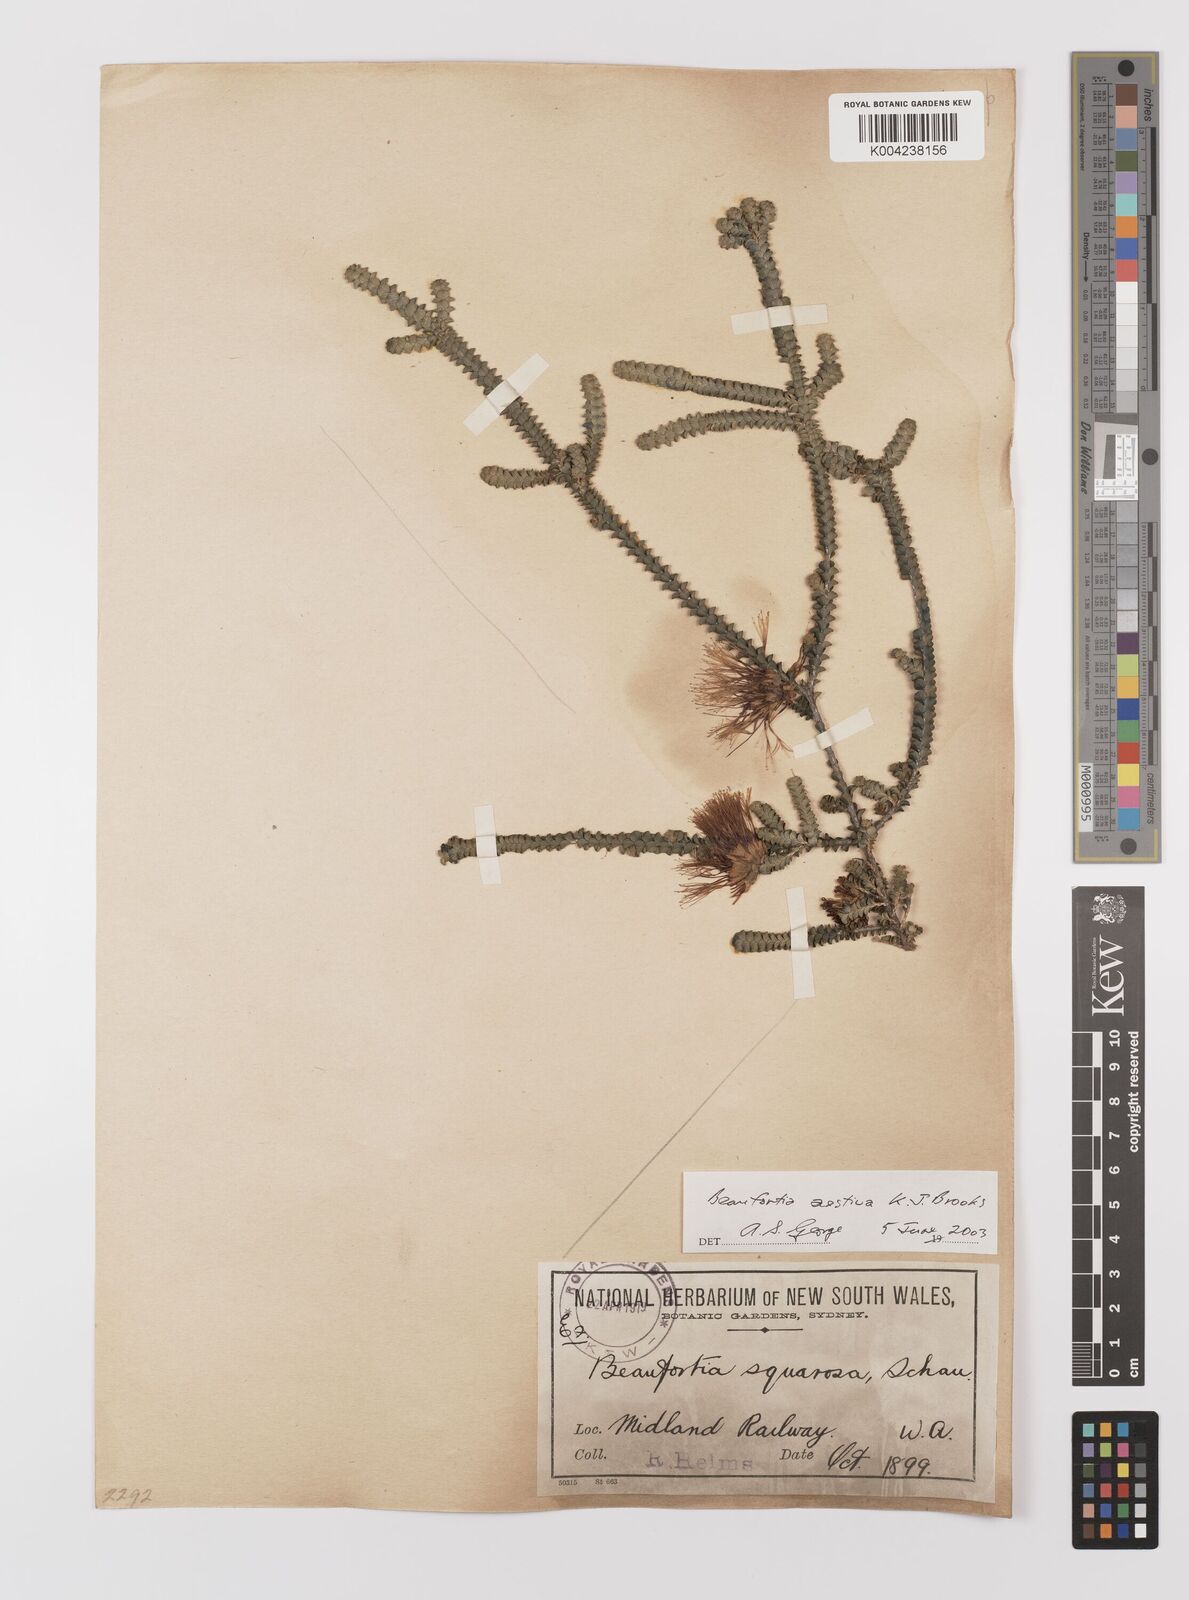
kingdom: Plantae
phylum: Tracheophyta
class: Magnoliopsida
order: Myrtales
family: Myrtaceae
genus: Melaleuca
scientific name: Melaleuca aestiva
